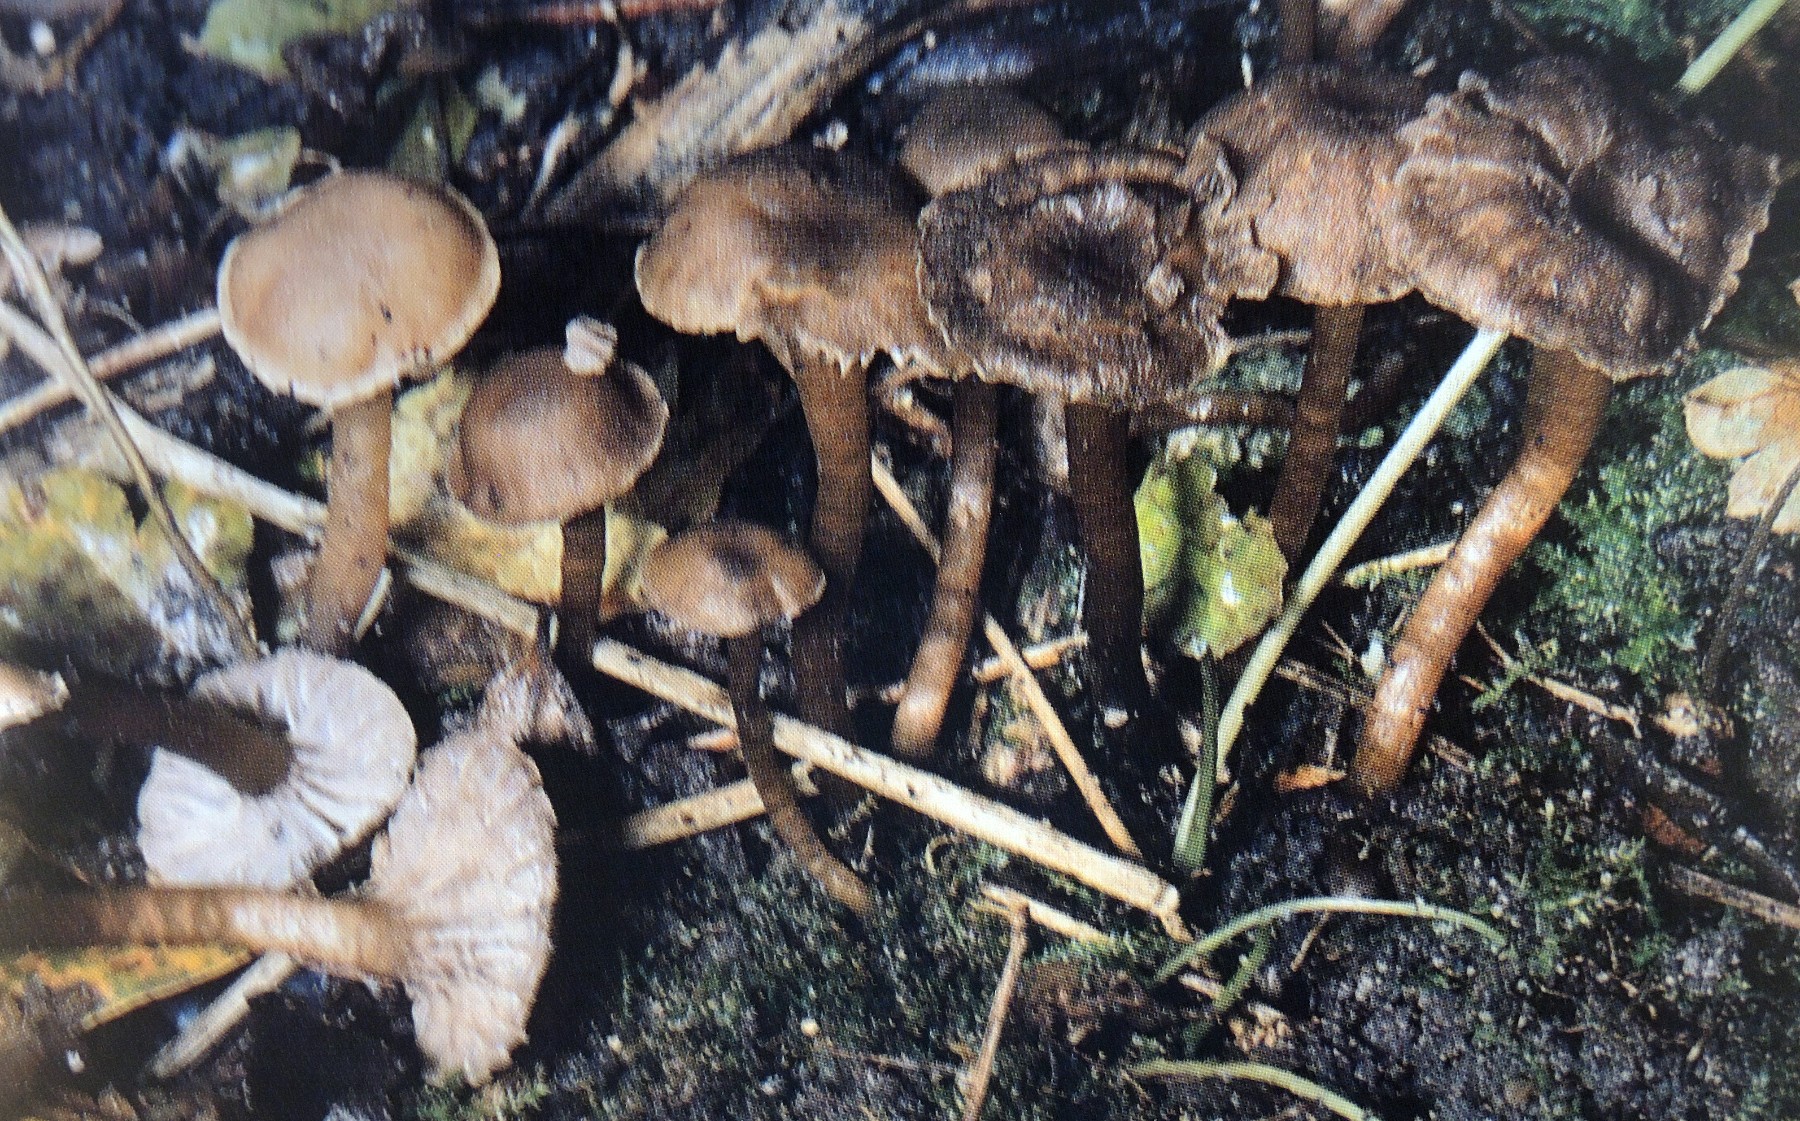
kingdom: Fungi
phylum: Basidiomycota
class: Agaricomycetes
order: Agaricales
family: Clavariaceae
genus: Hodophilus
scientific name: Hodophilus foetens
